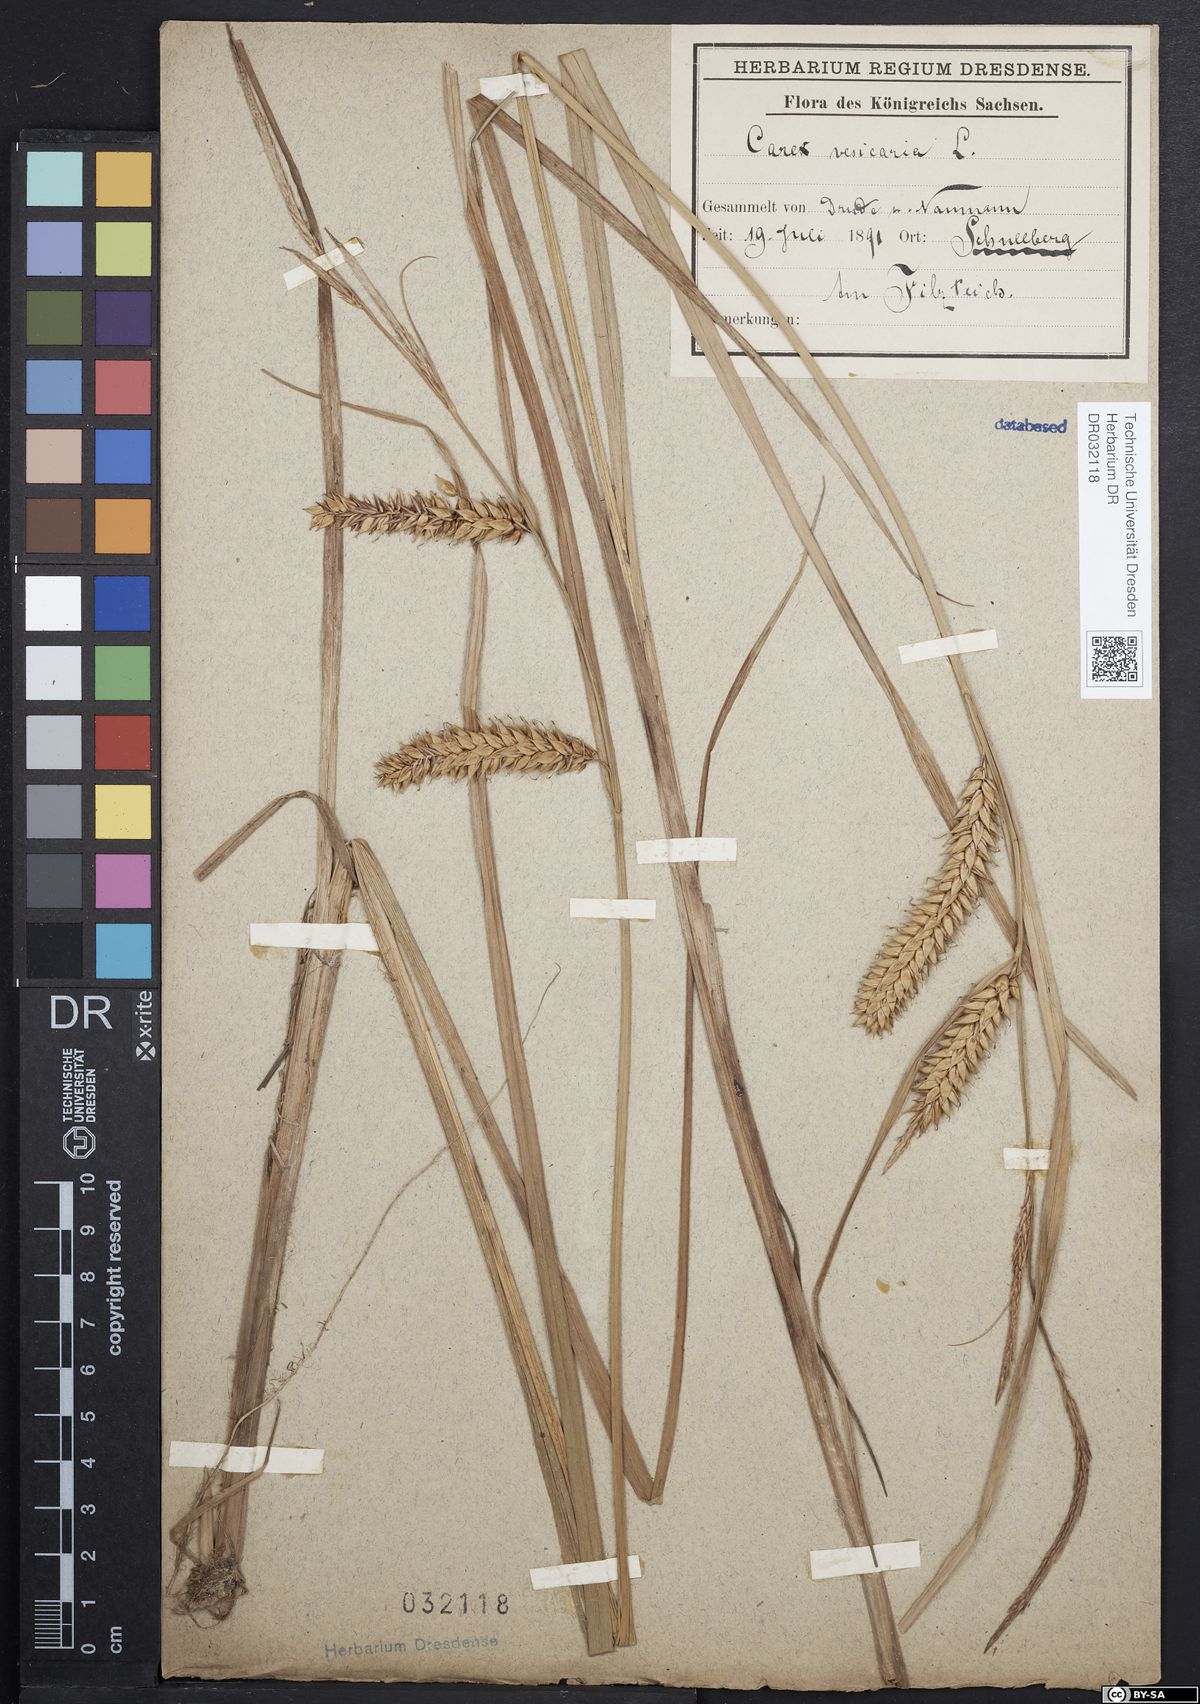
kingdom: Plantae
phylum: Tracheophyta
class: Liliopsida
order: Poales
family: Cyperaceae
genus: Carex
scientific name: Carex vesicaria
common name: Bladder-sedge
